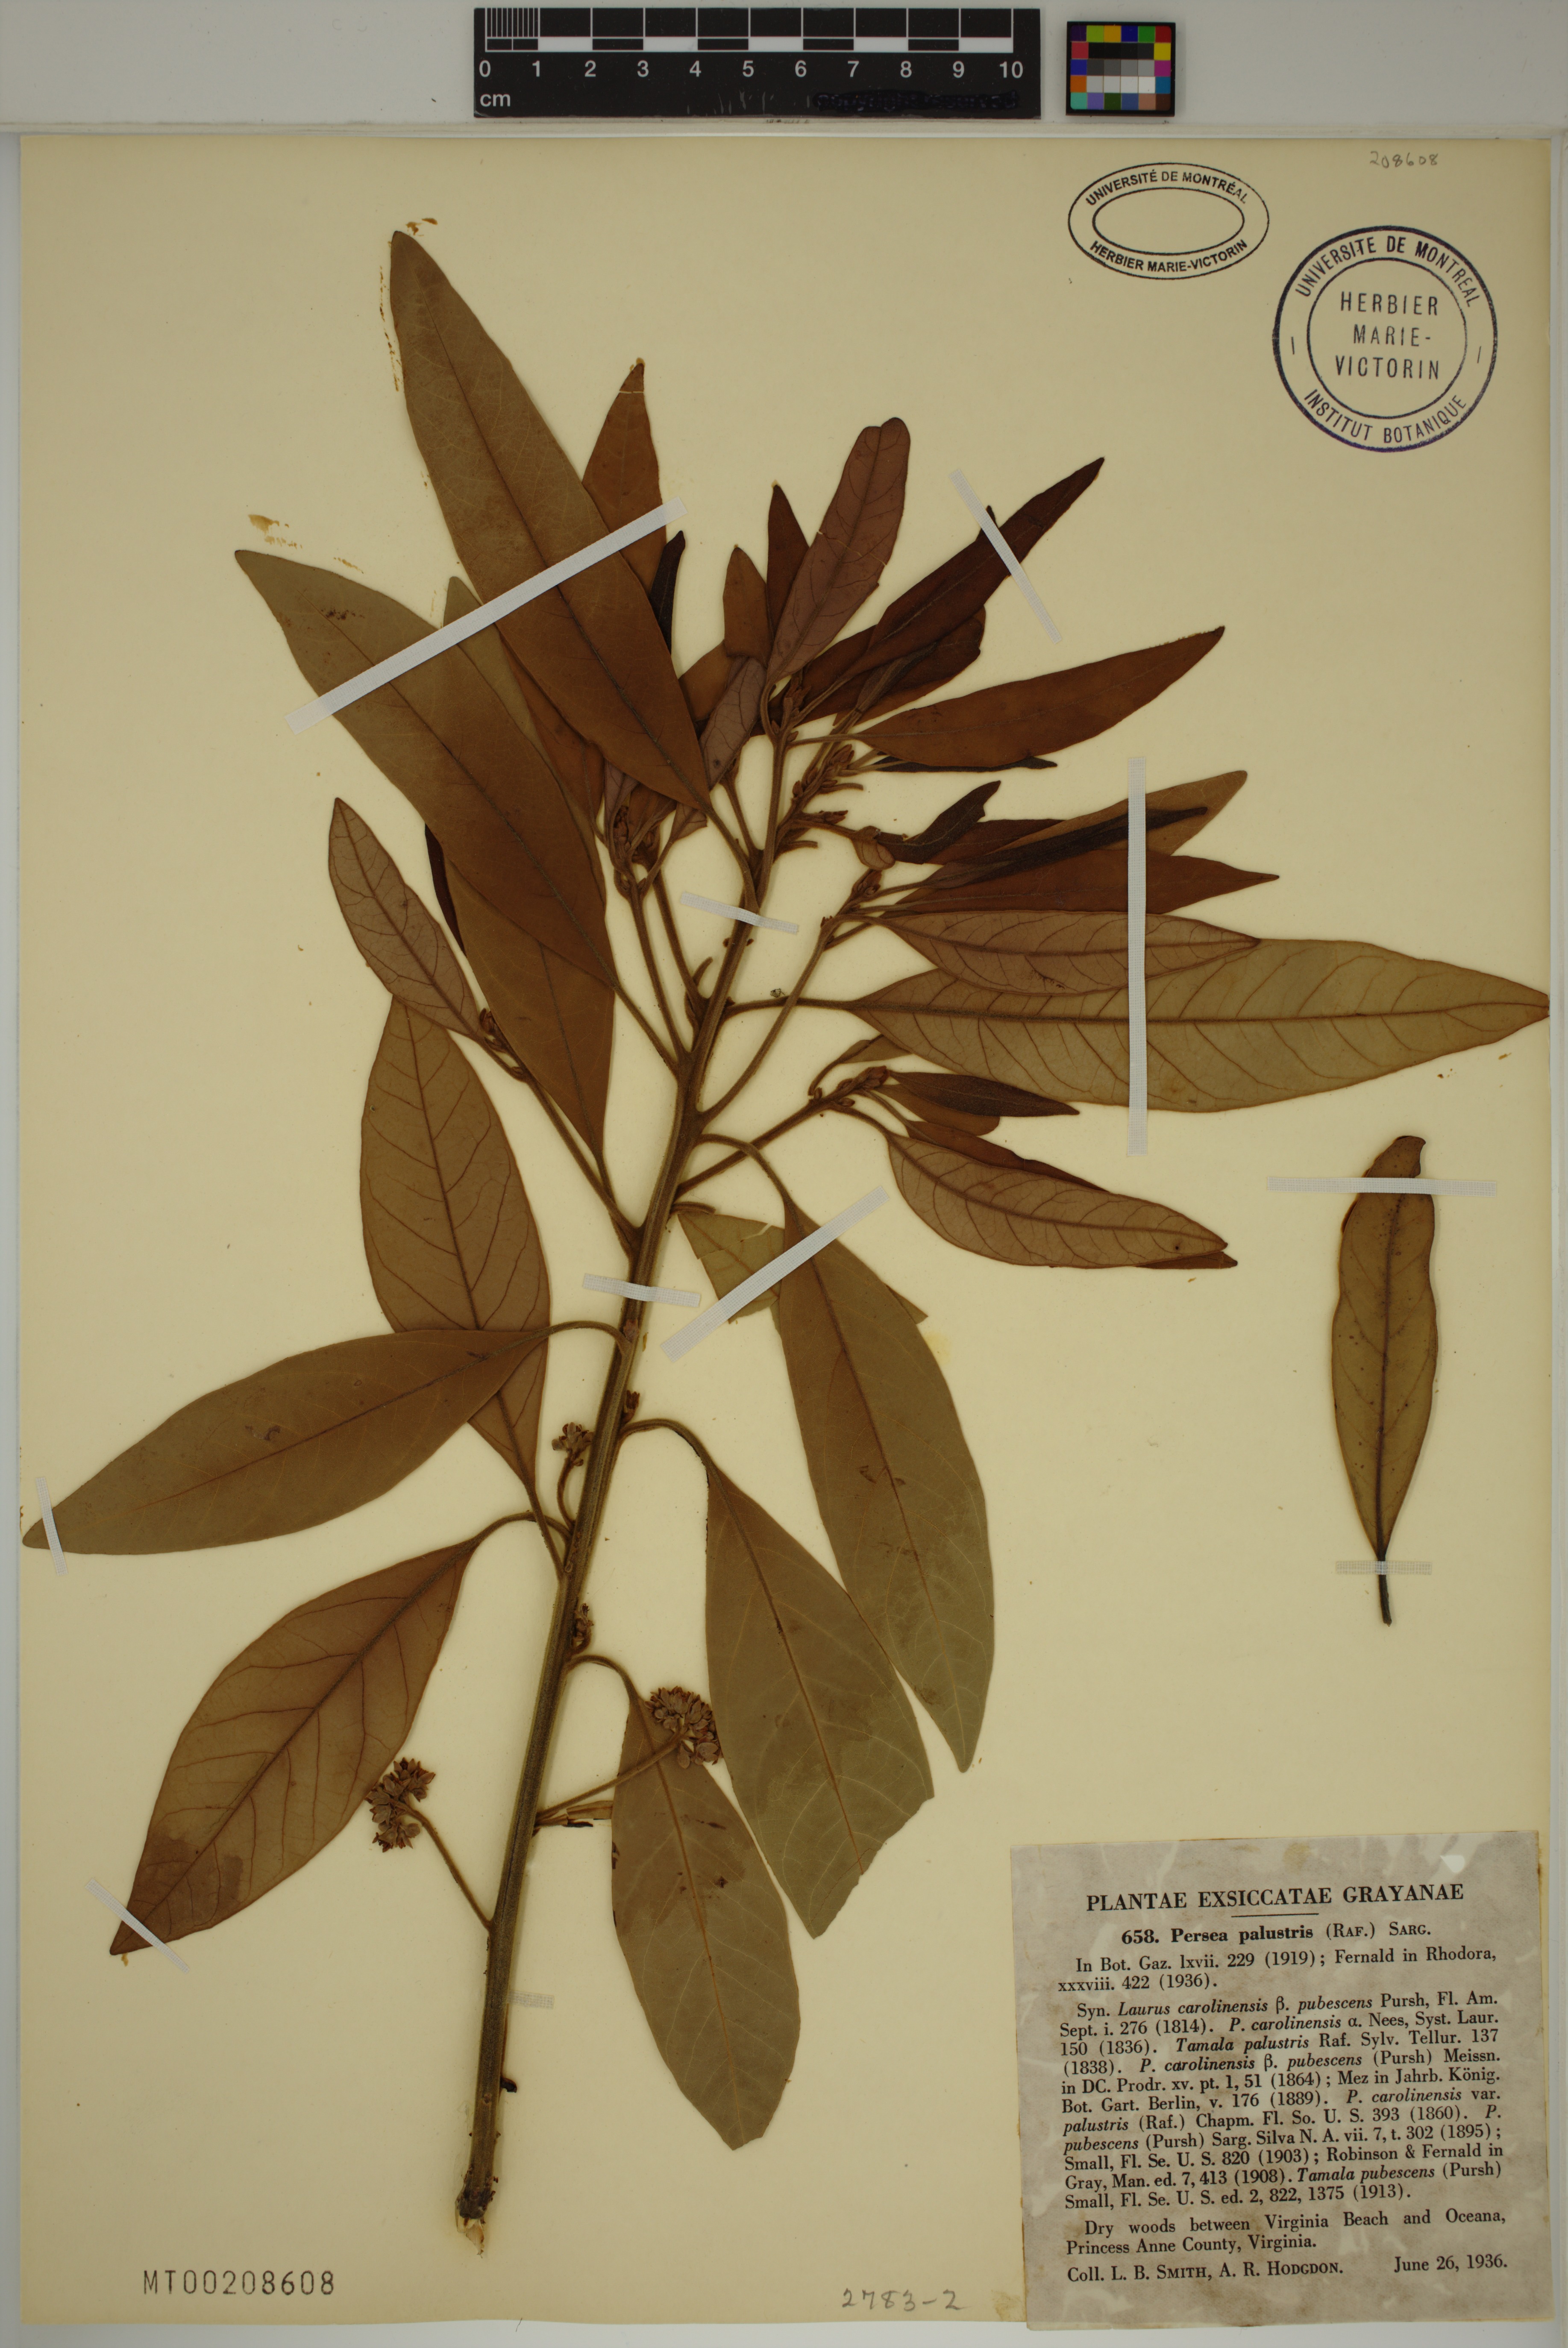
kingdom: Plantae
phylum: Tracheophyta
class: Magnoliopsida
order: Laurales
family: Lauraceae
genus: Persea
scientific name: Persea palustris
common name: Swampbay
